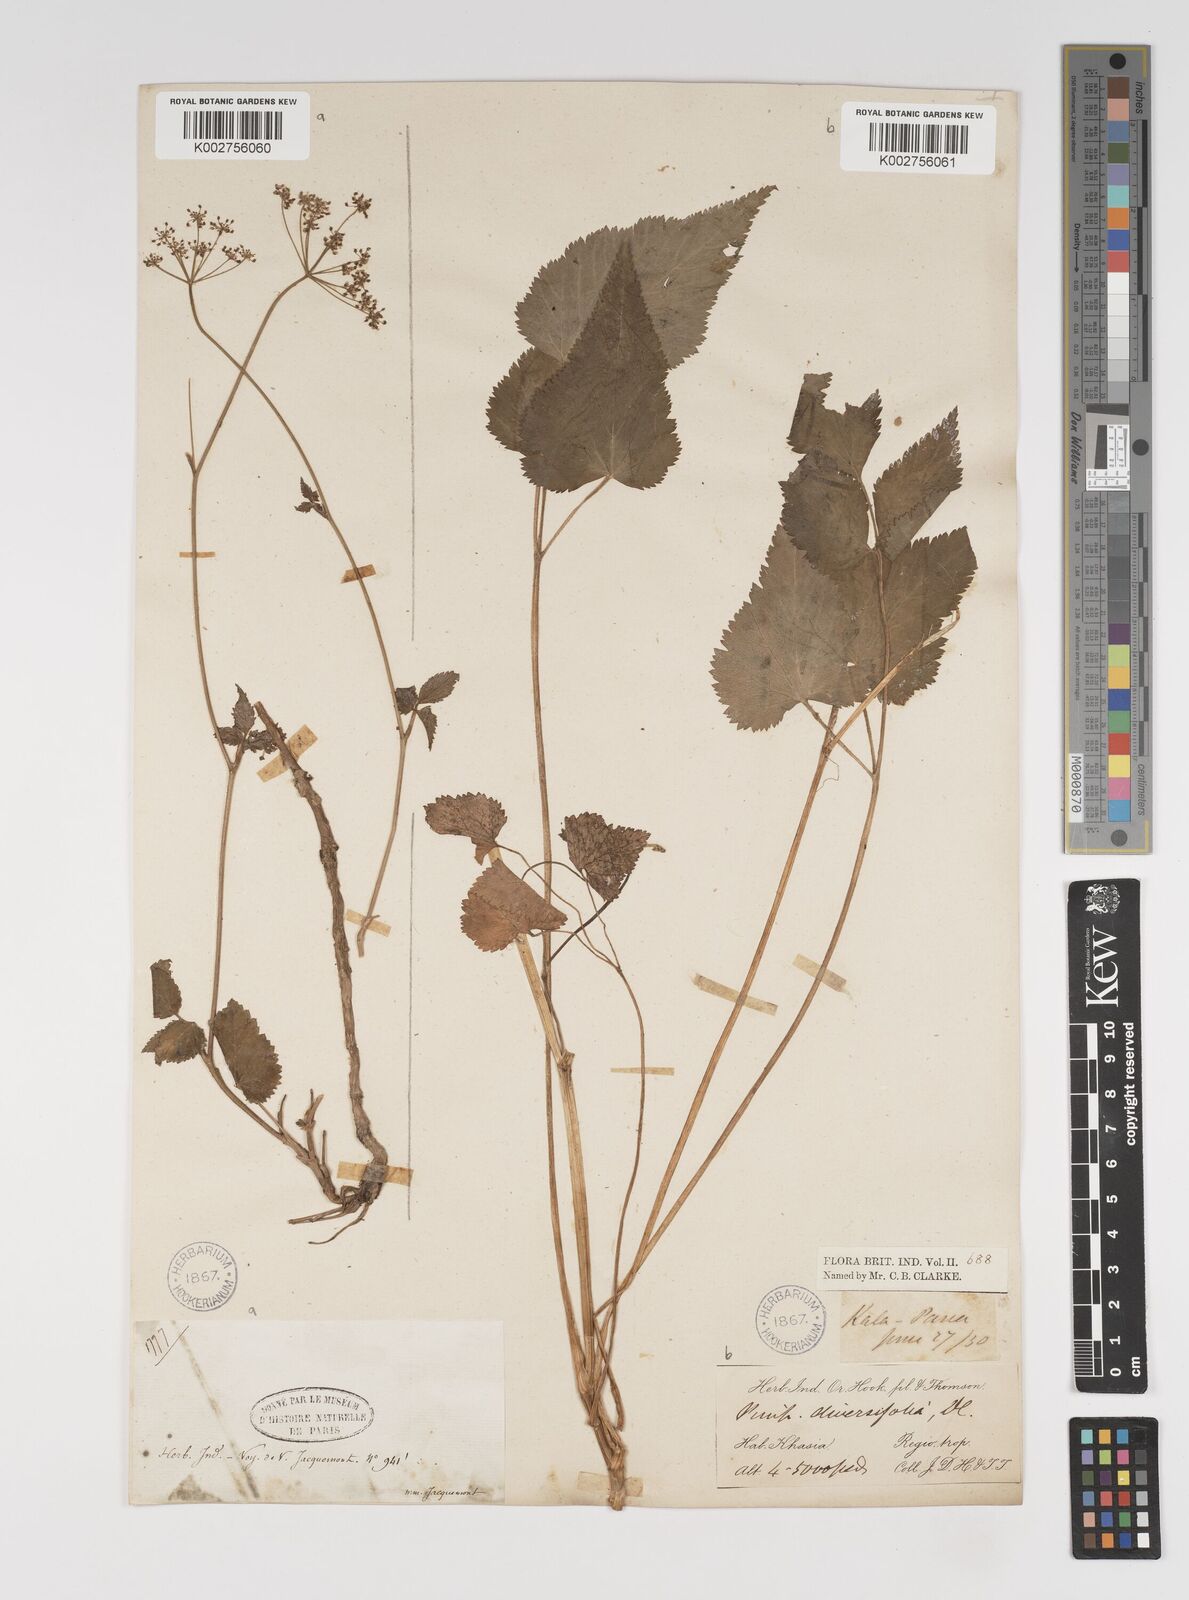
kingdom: Plantae
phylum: Tracheophyta
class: Magnoliopsida
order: Apiales
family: Apiaceae
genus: Pimpinella
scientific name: Pimpinella diversifolia
